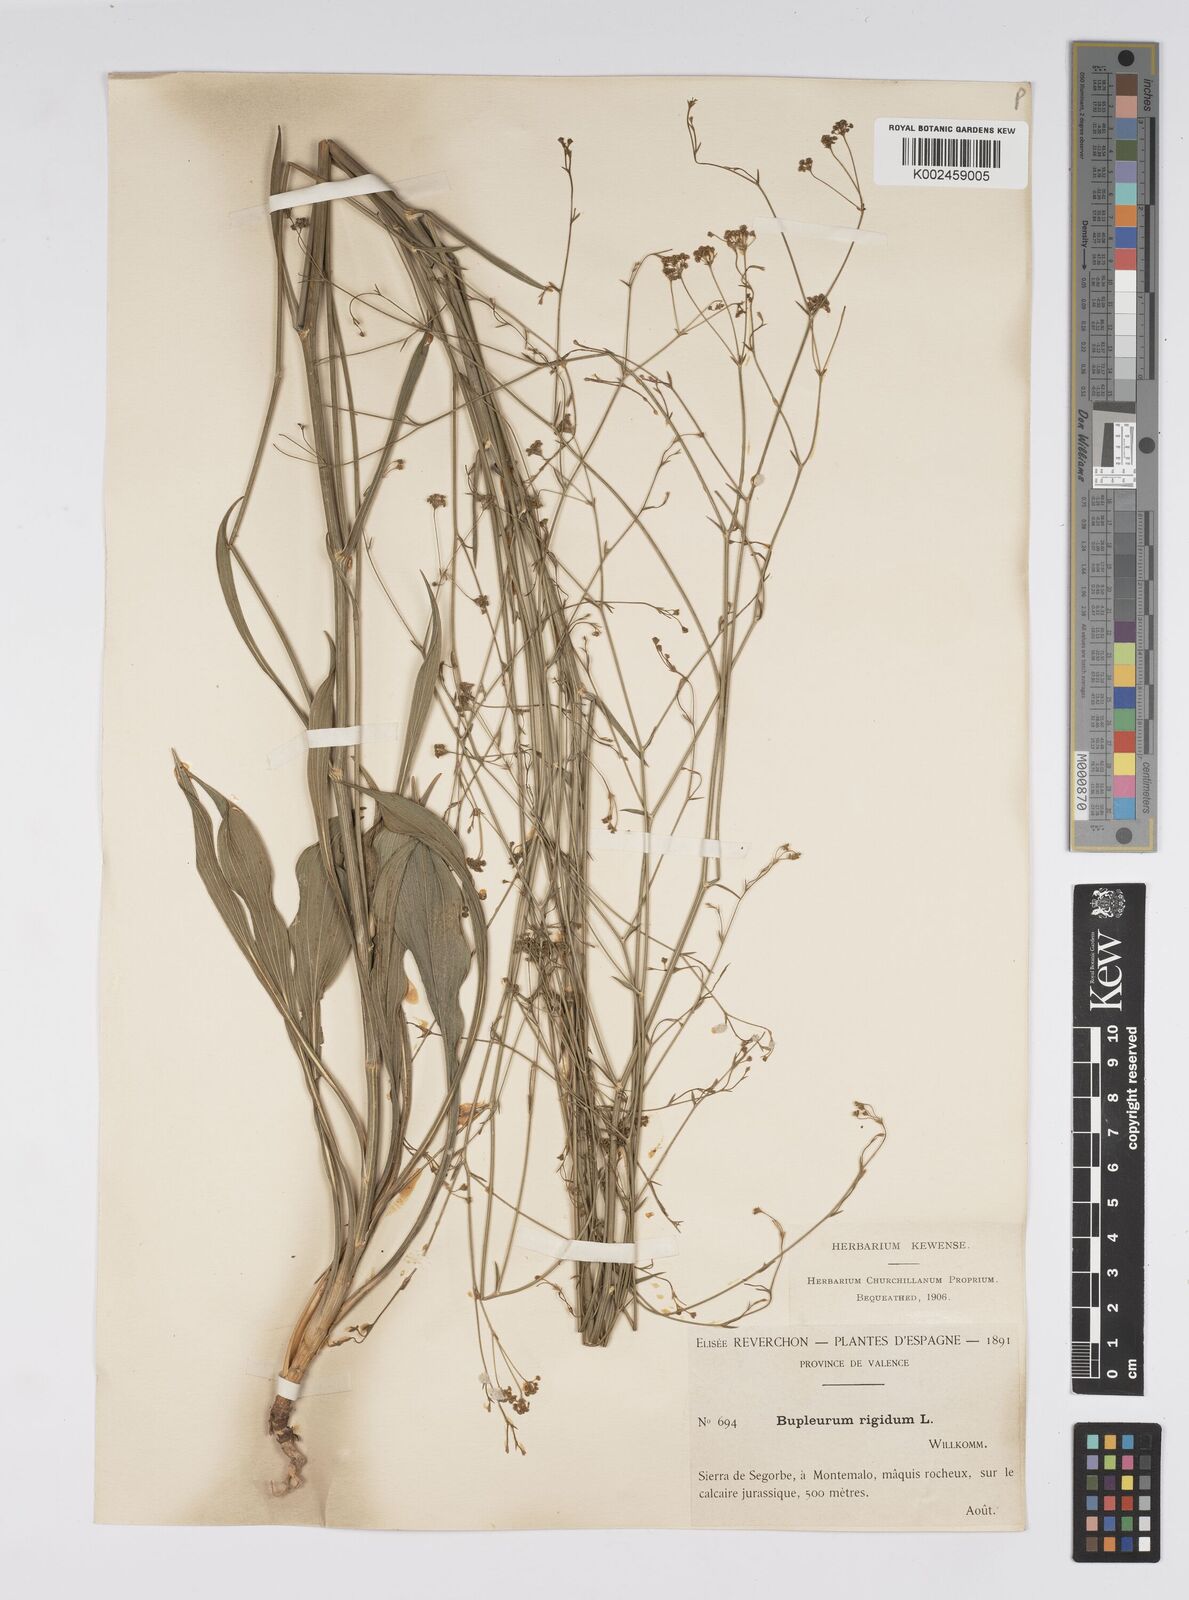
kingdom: Plantae
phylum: Tracheophyta
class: Magnoliopsida
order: Apiales
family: Apiaceae
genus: Bupleurum
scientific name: Bupleurum rigidum
